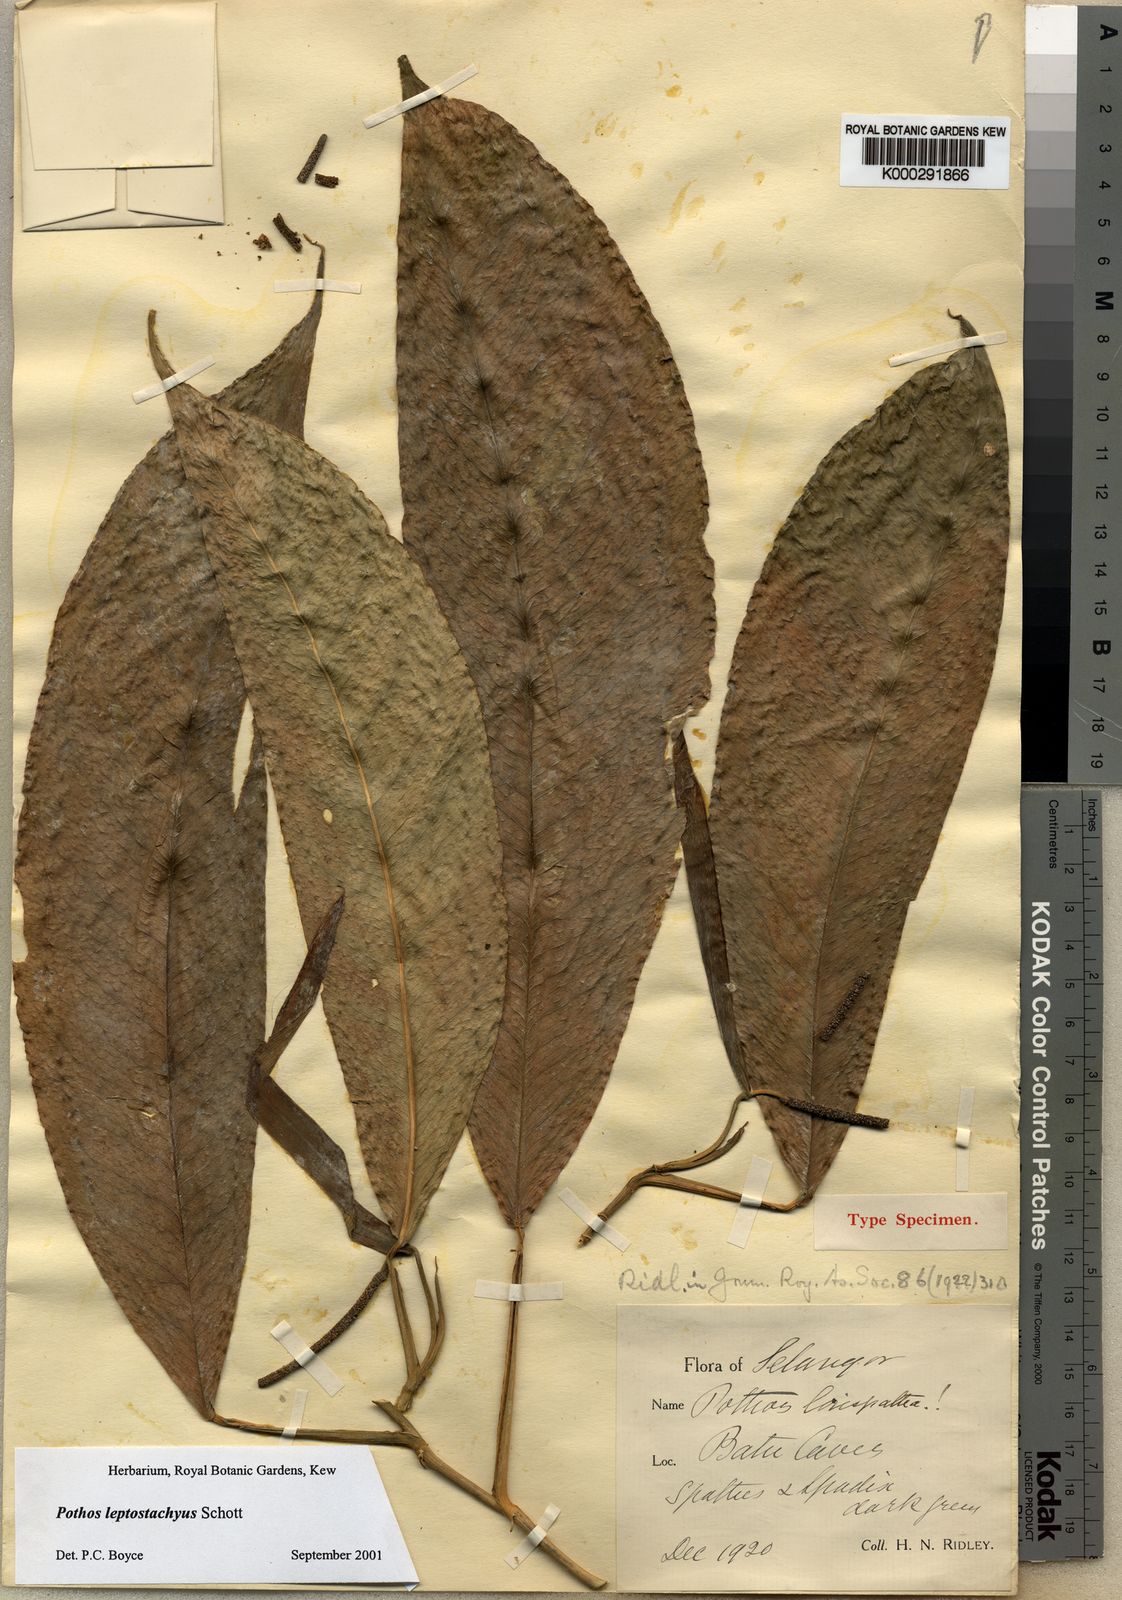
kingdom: Plantae
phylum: Tracheophyta
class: Liliopsida
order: Alismatales
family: Araceae
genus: Pothos
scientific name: Pothos leptostachyus
